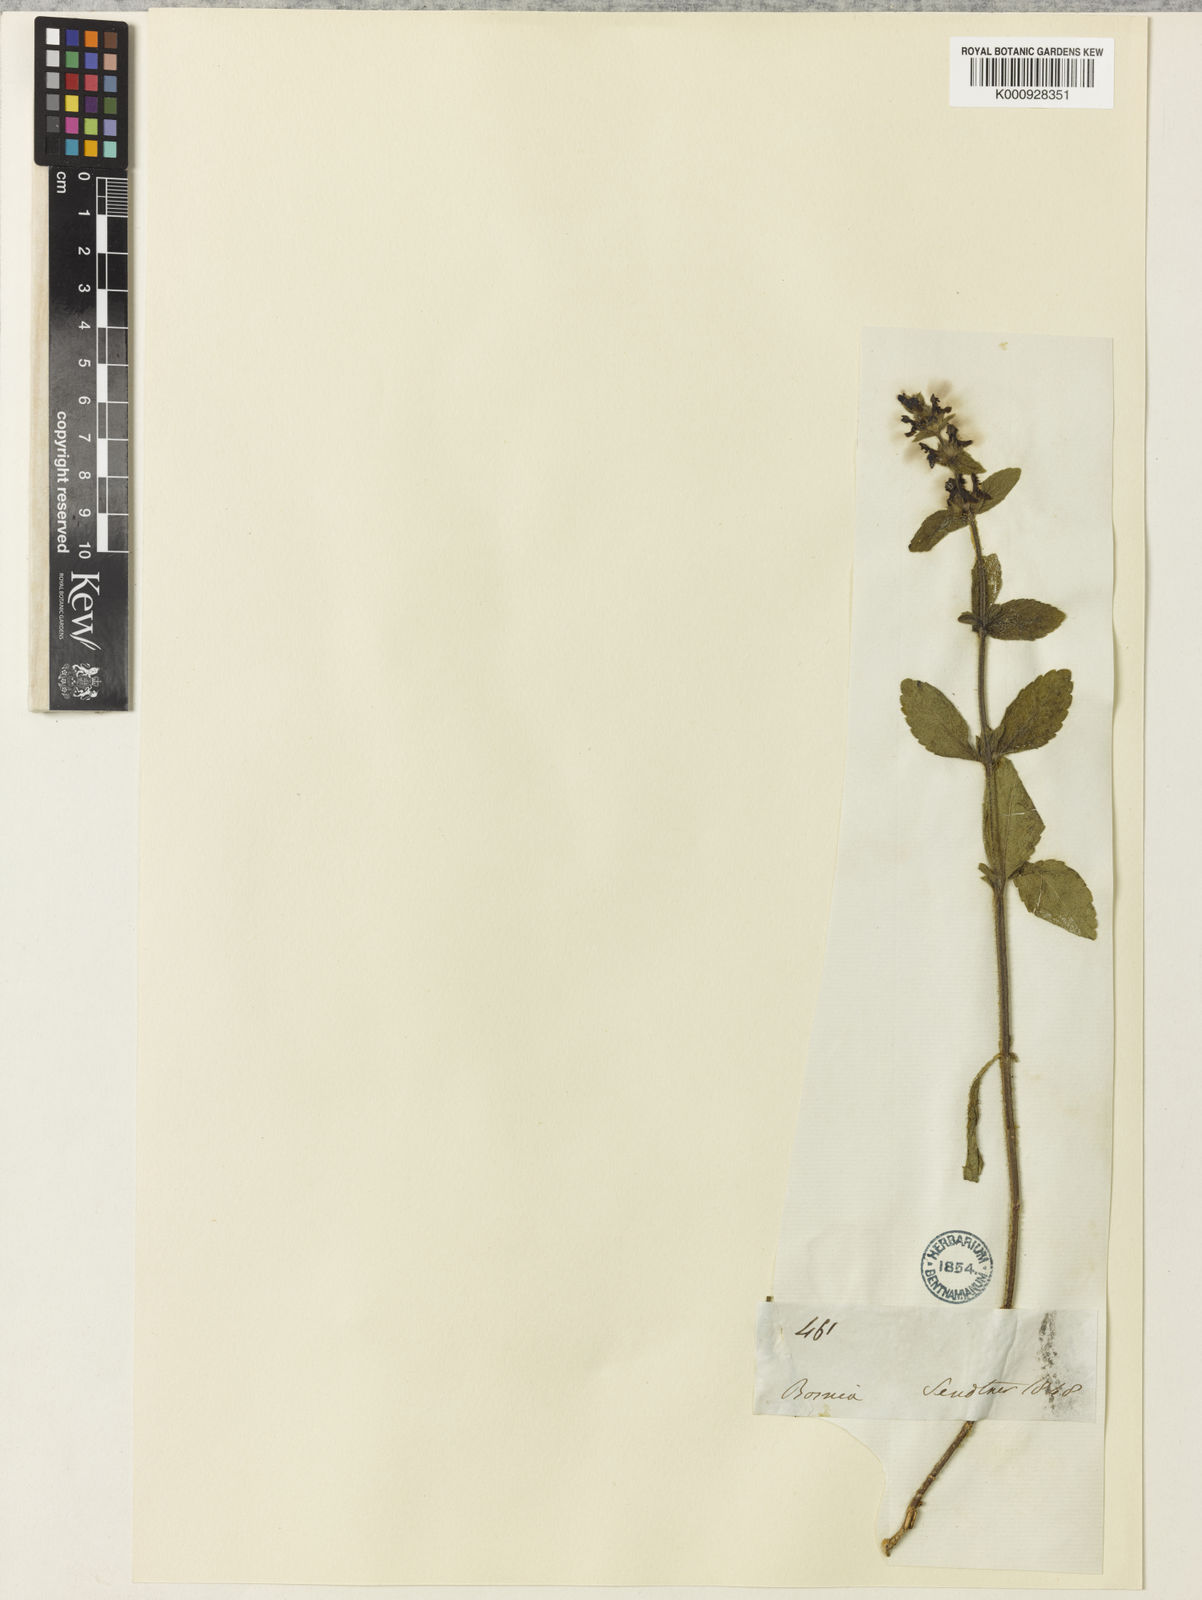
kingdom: Plantae
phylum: Tracheophyta
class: Magnoliopsida
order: Lamiales
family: Lamiaceae
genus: Stachys
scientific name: Stachys anisochila
